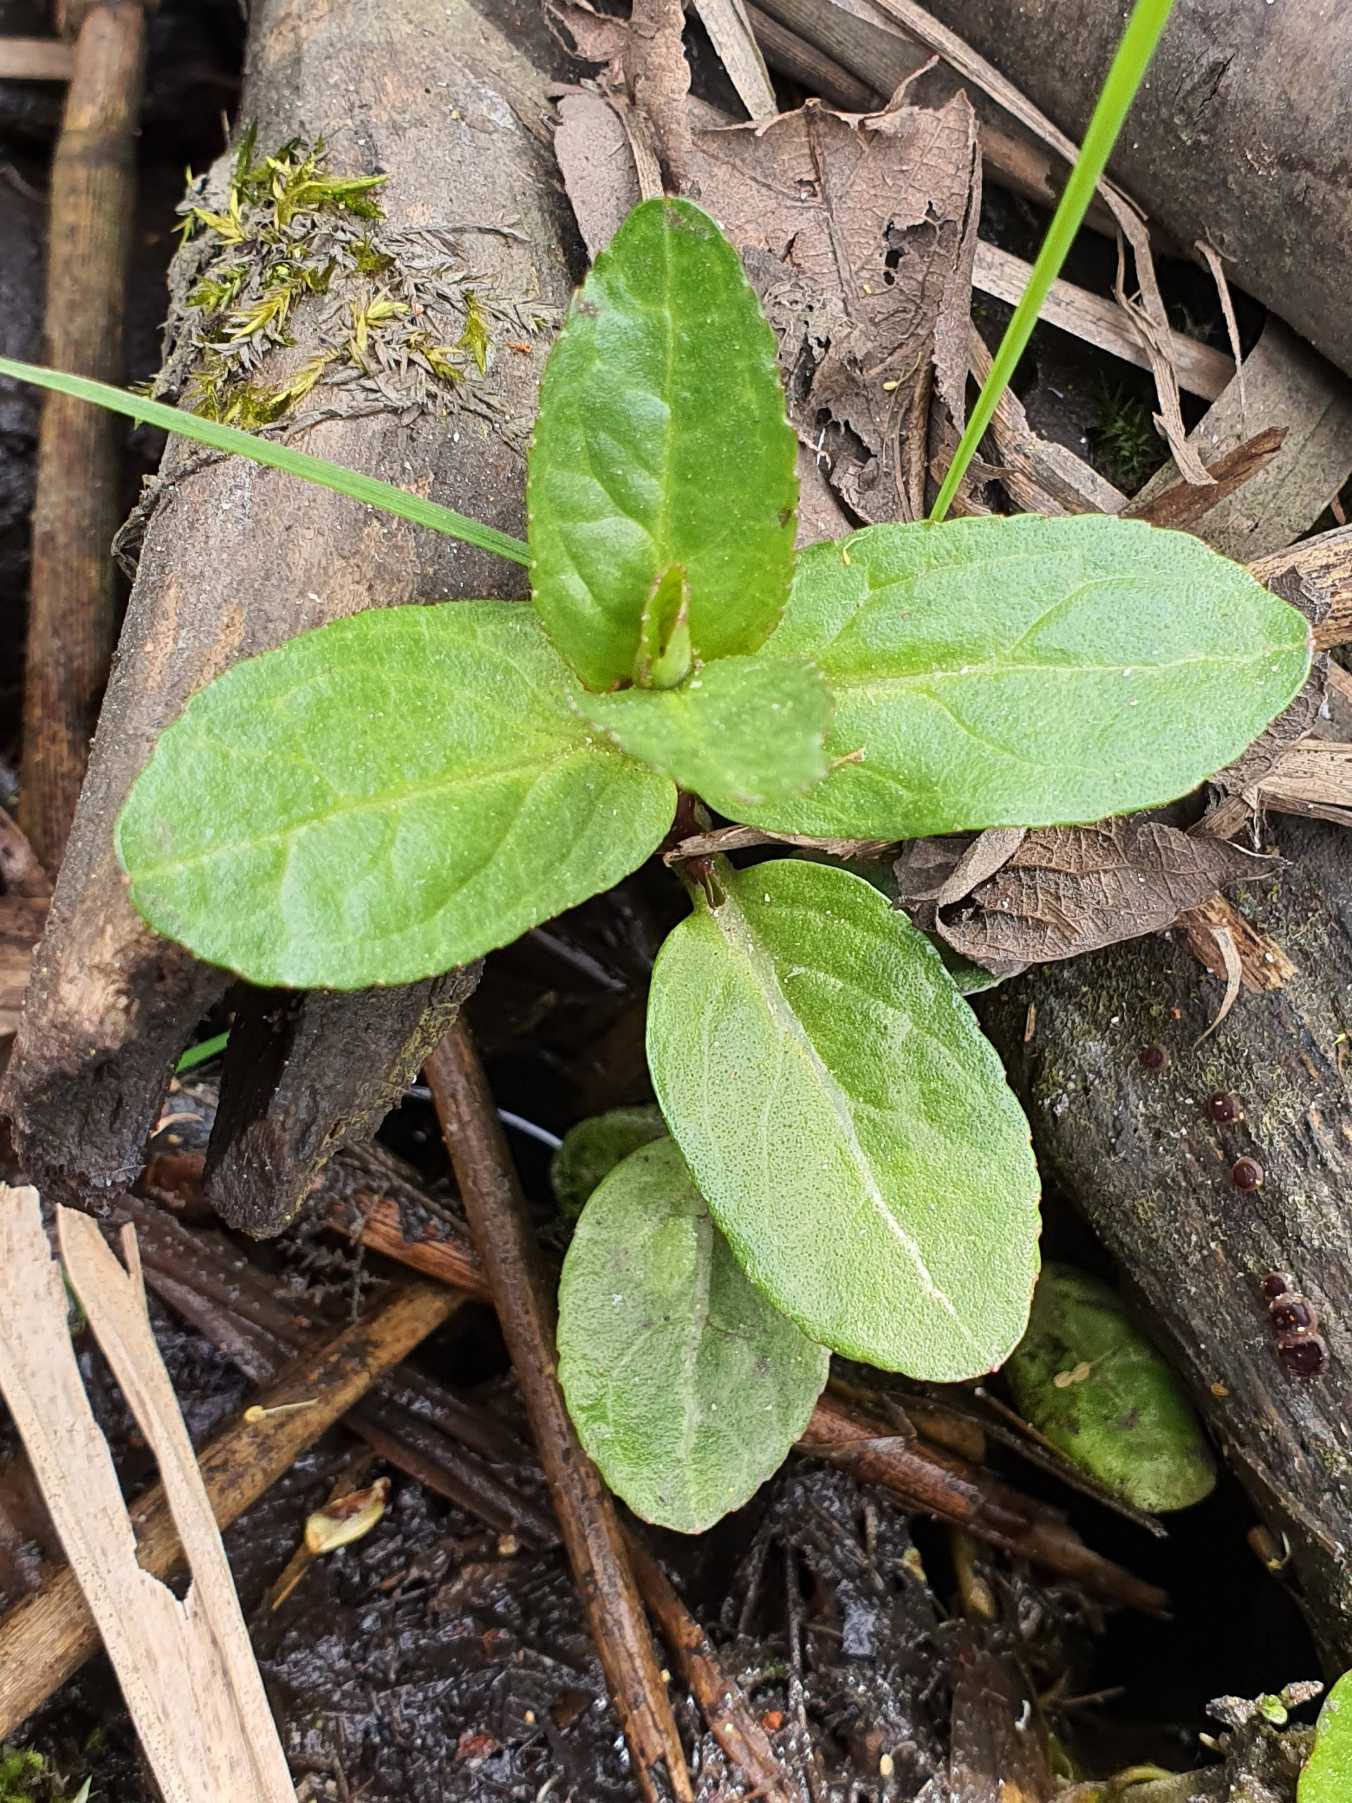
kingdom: Plantae
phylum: Tracheophyta
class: Magnoliopsida
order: Lamiales
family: Plantaginaceae
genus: Veronica
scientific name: Veronica beccabunga
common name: Tykbladet ærenpris
